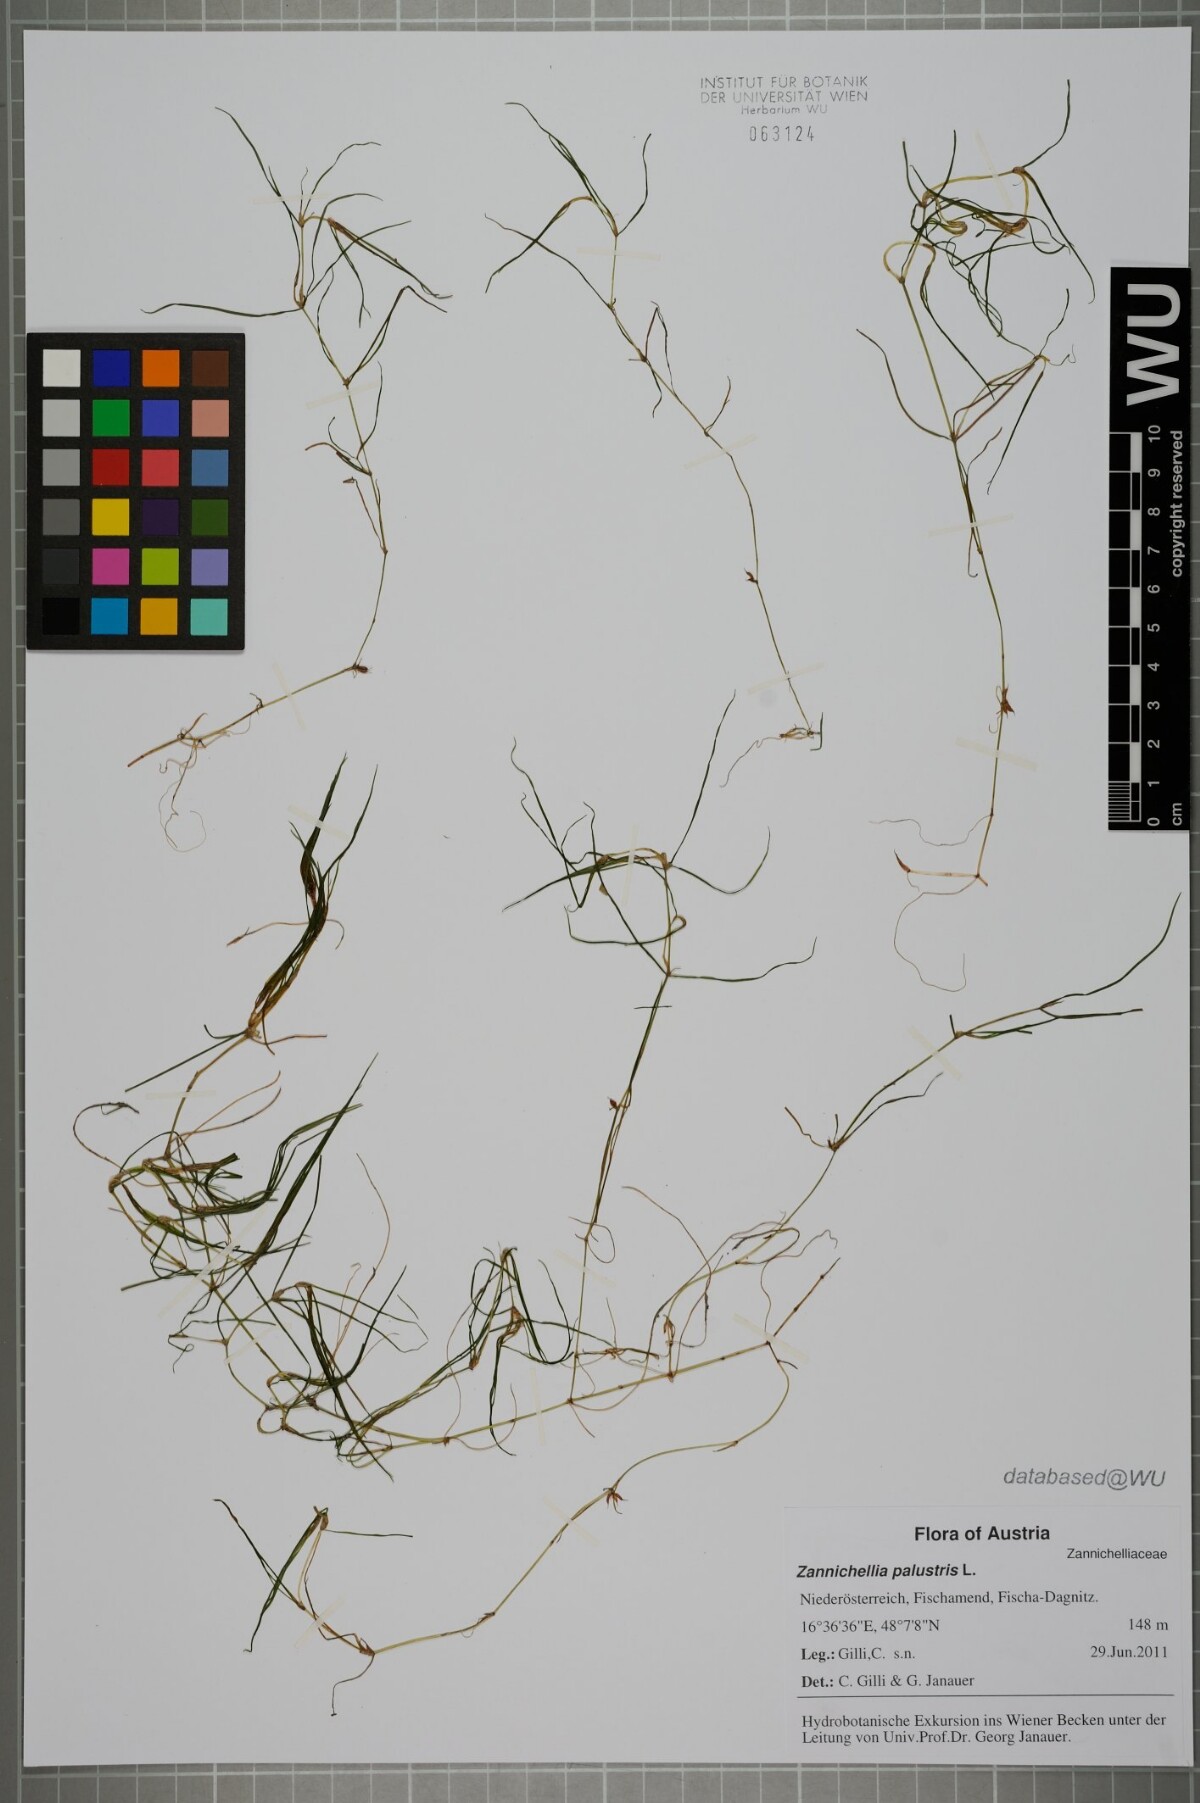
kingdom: Plantae
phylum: Tracheophyta
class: Liliopsida
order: Alismatales
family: Potamogetonaceae
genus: Zannichellia
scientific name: Zannichellia palustris
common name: Horned pondweed
